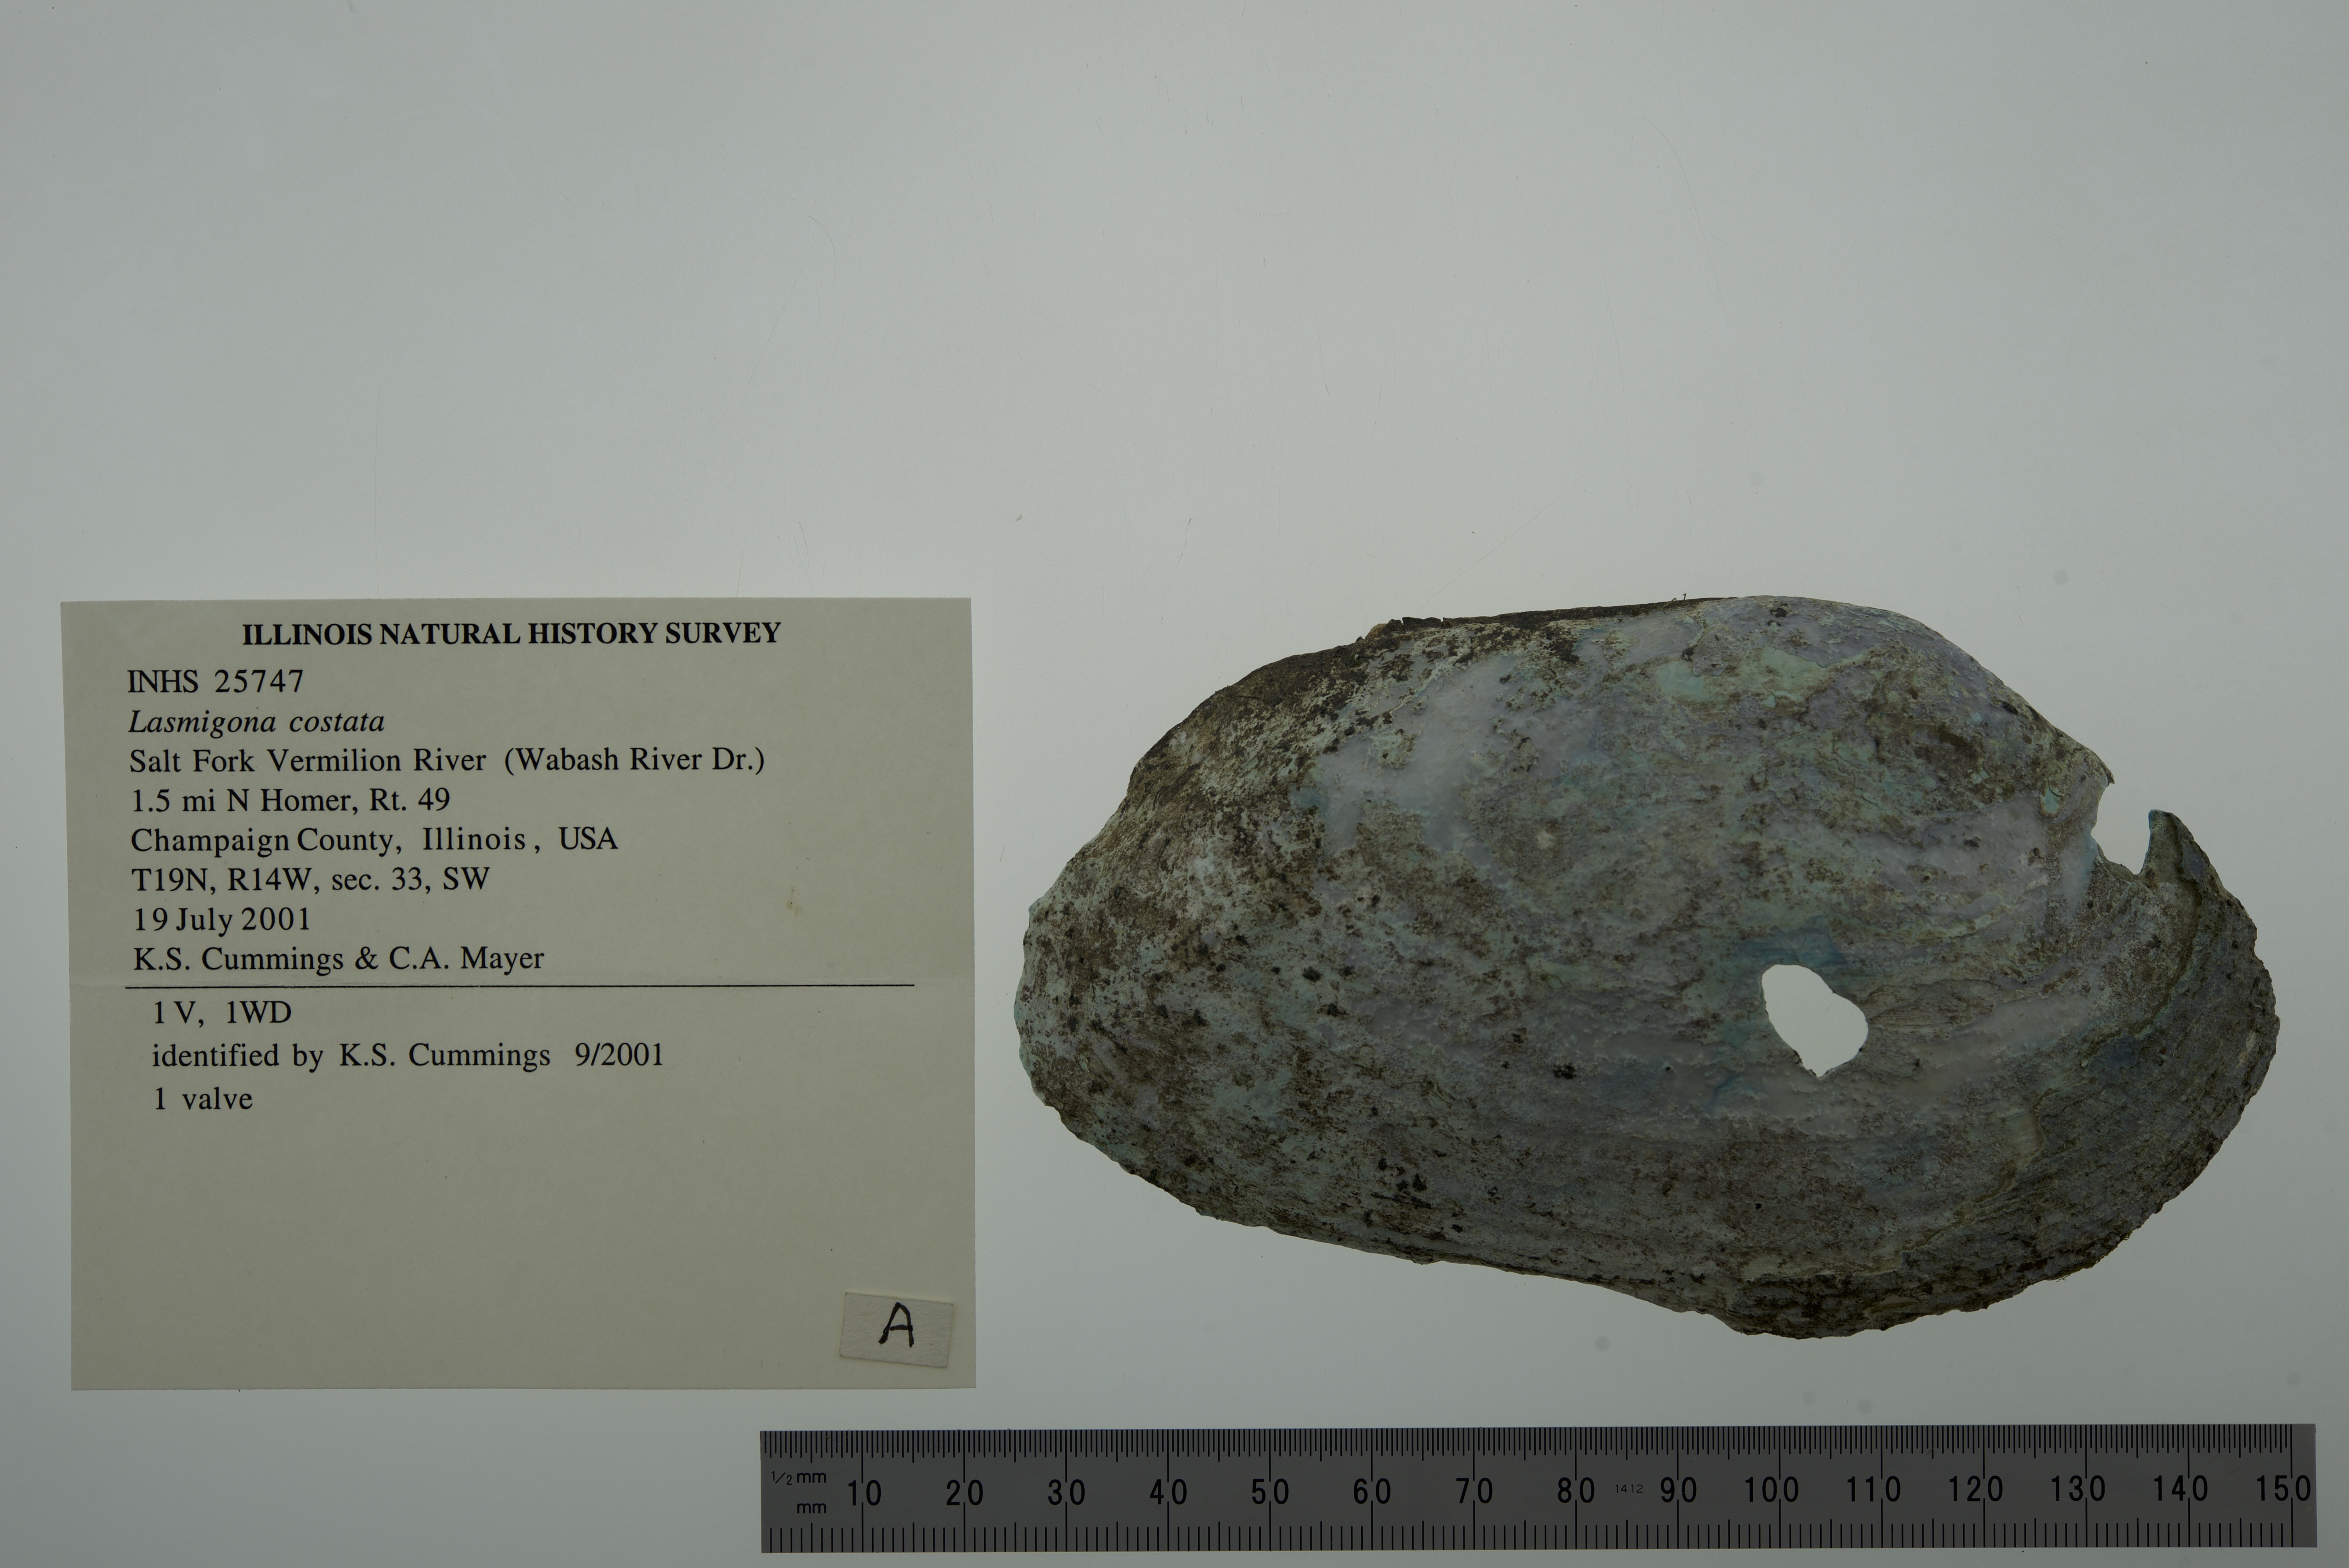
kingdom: Animalia
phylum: Mollusca
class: Bivalvia
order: Unionida
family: Unionidae
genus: Lasmigona
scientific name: Lasmigona costata
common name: Flutedshell
